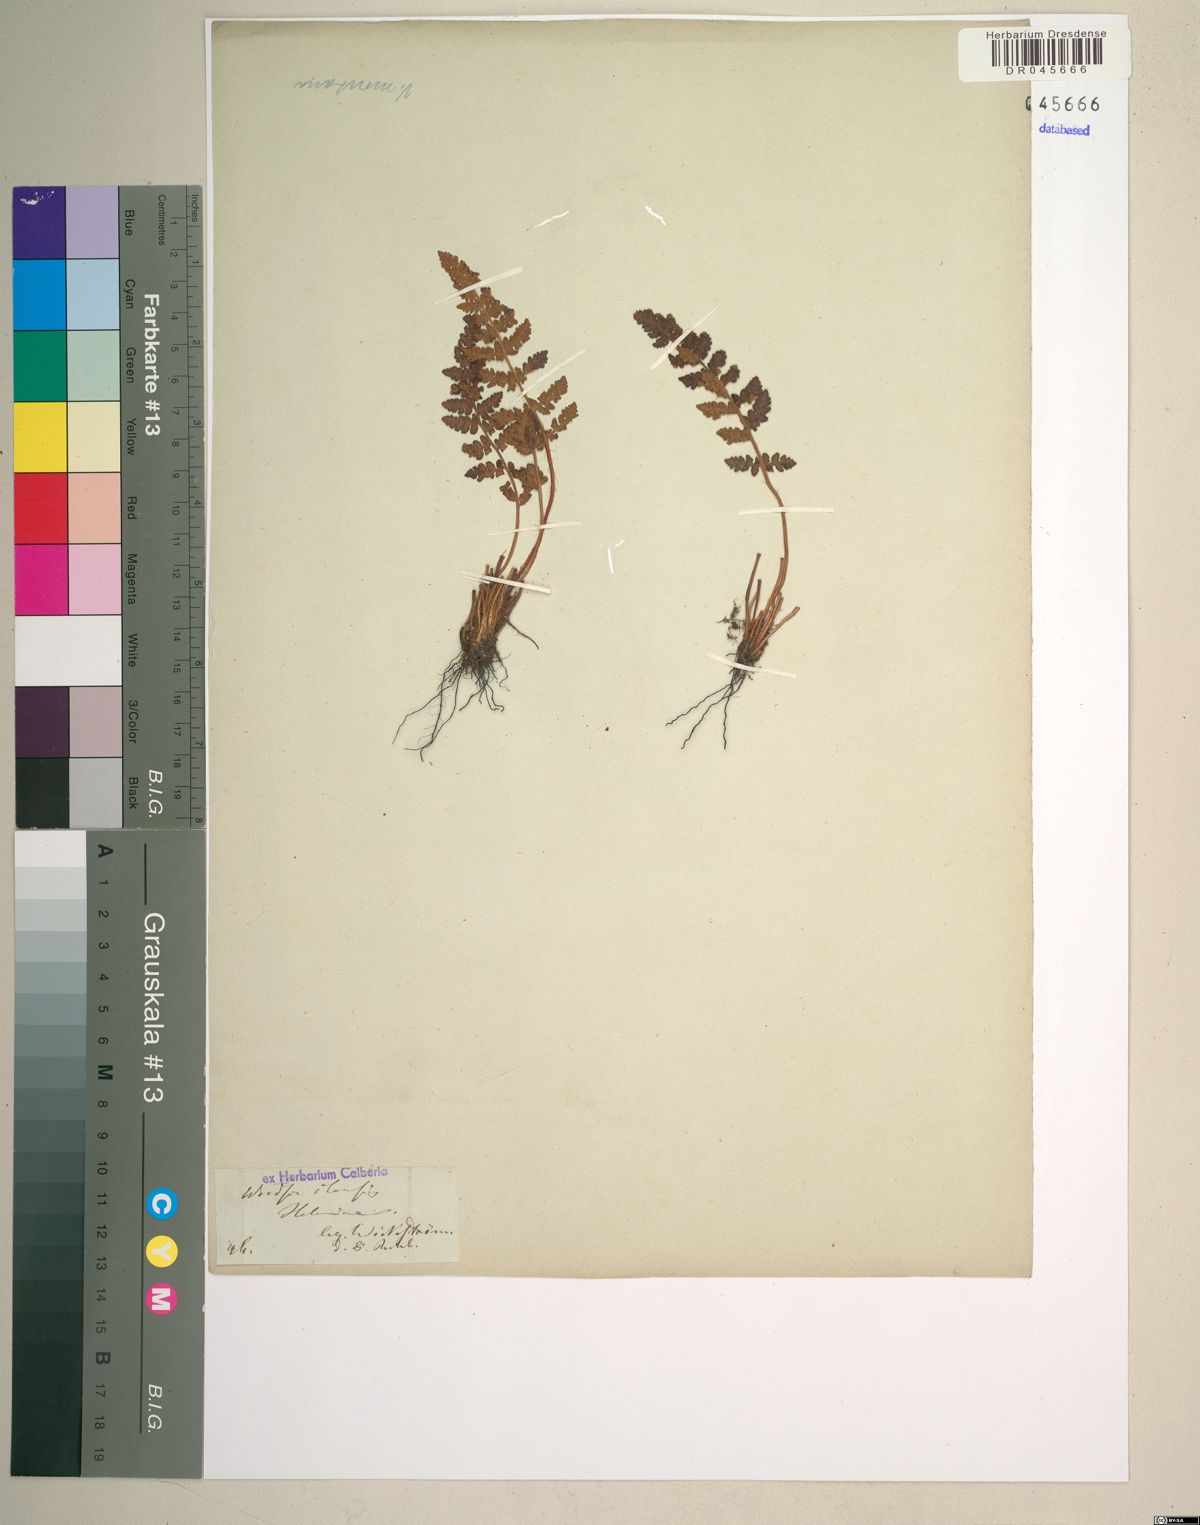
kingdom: Plantae
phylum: Tracheophyta
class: Polypodiopsida
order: Polypodiales
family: Woodsiaceae
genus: Woodsia
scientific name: Woodsia ilvensis
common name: Fragrant woodsia
